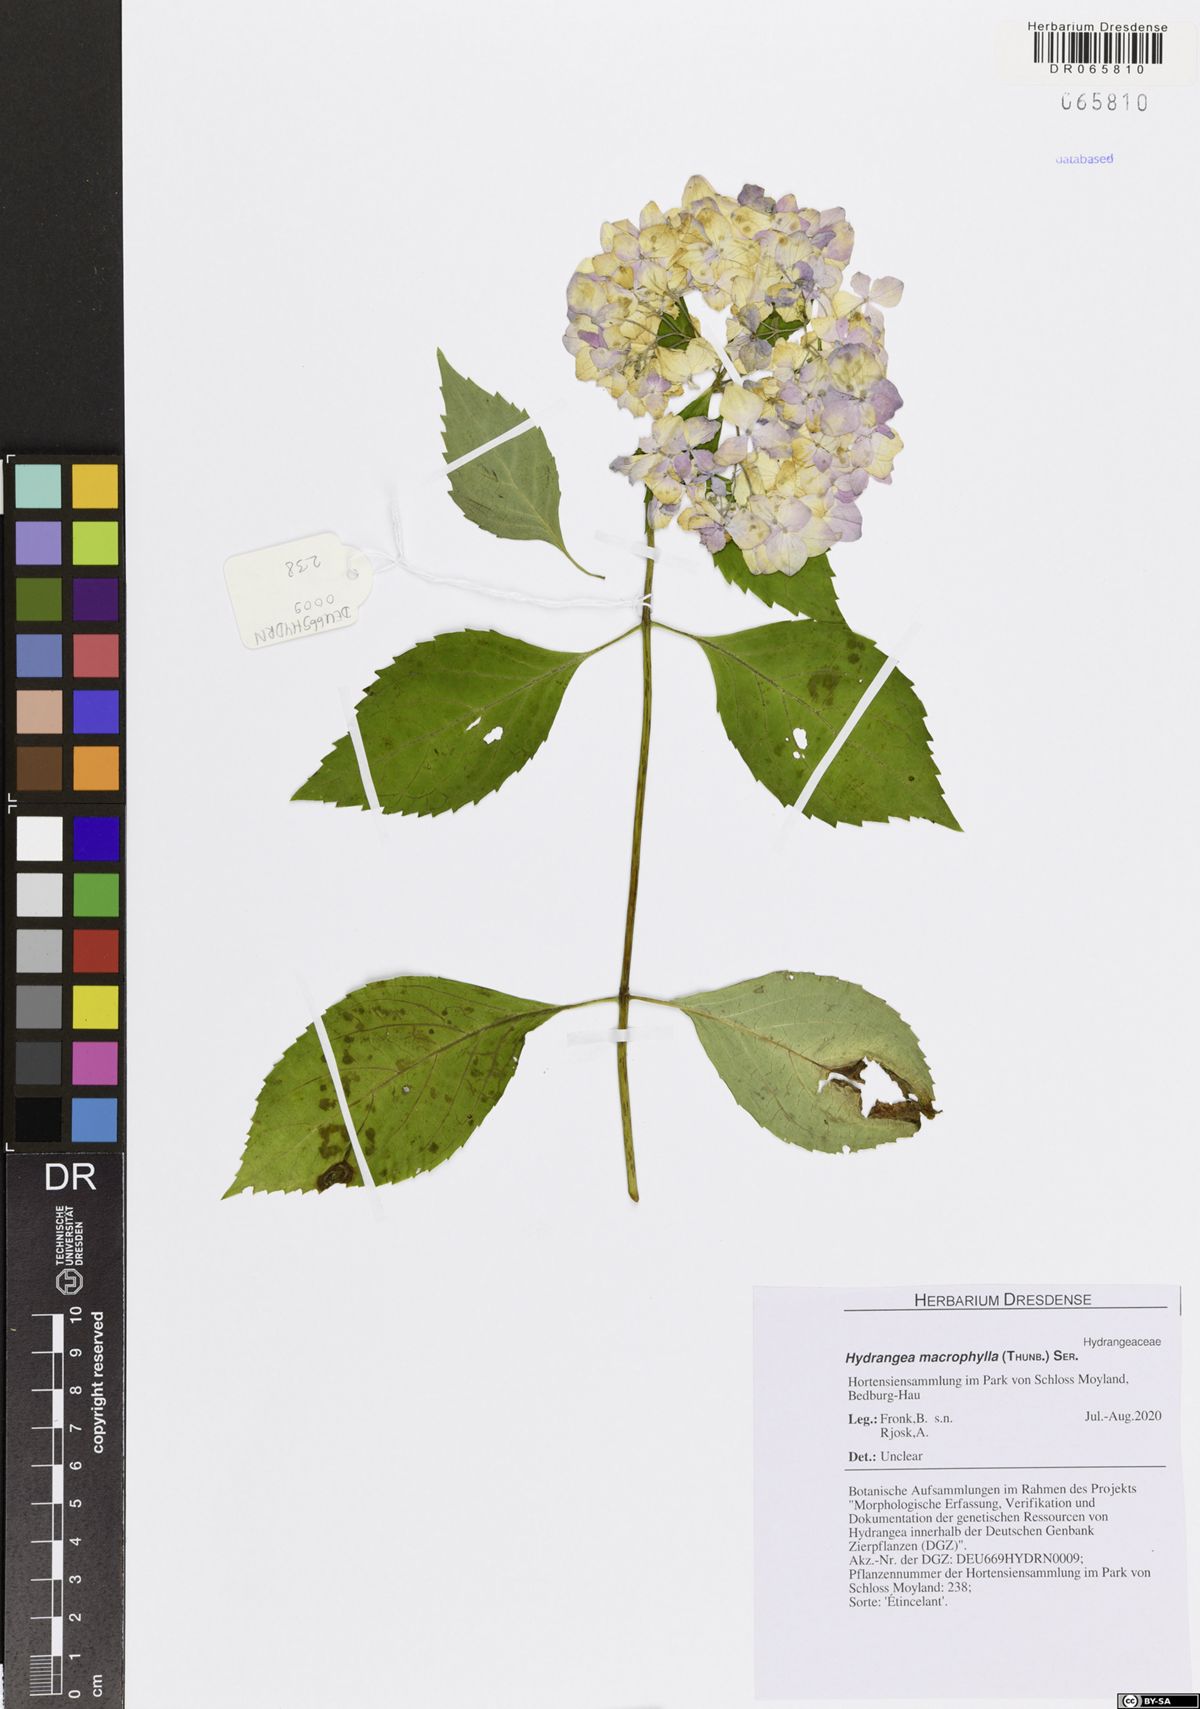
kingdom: Plantae
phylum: Tracheophyta
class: Magnoliopsida
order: Cornales
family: Hydrangeaceae
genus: Hydrangea
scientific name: Hydrangea macrophylla
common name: Hydrangea
